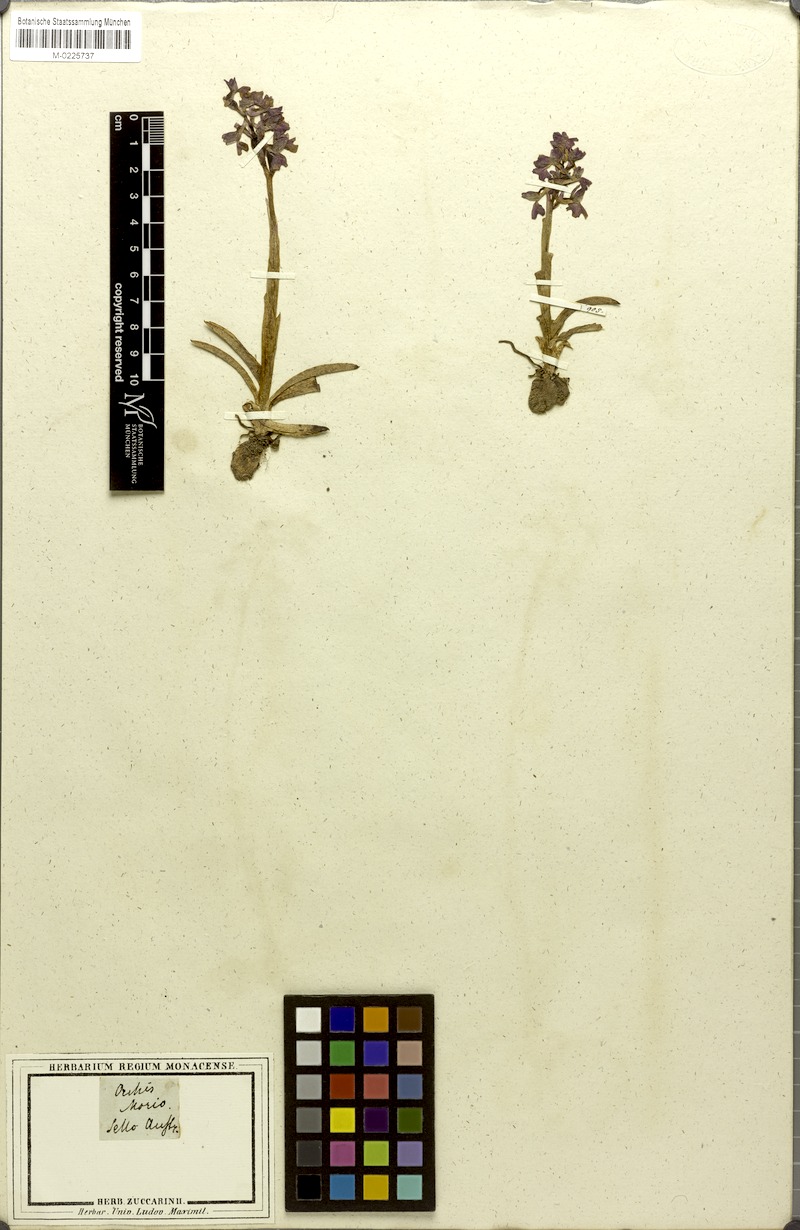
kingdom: Plantae
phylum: Tracheophyta
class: Liliopsida
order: Asparagales
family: Orchidaceae
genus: Anacamptis
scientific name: Anacamptis morio
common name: Green-winged orchid
